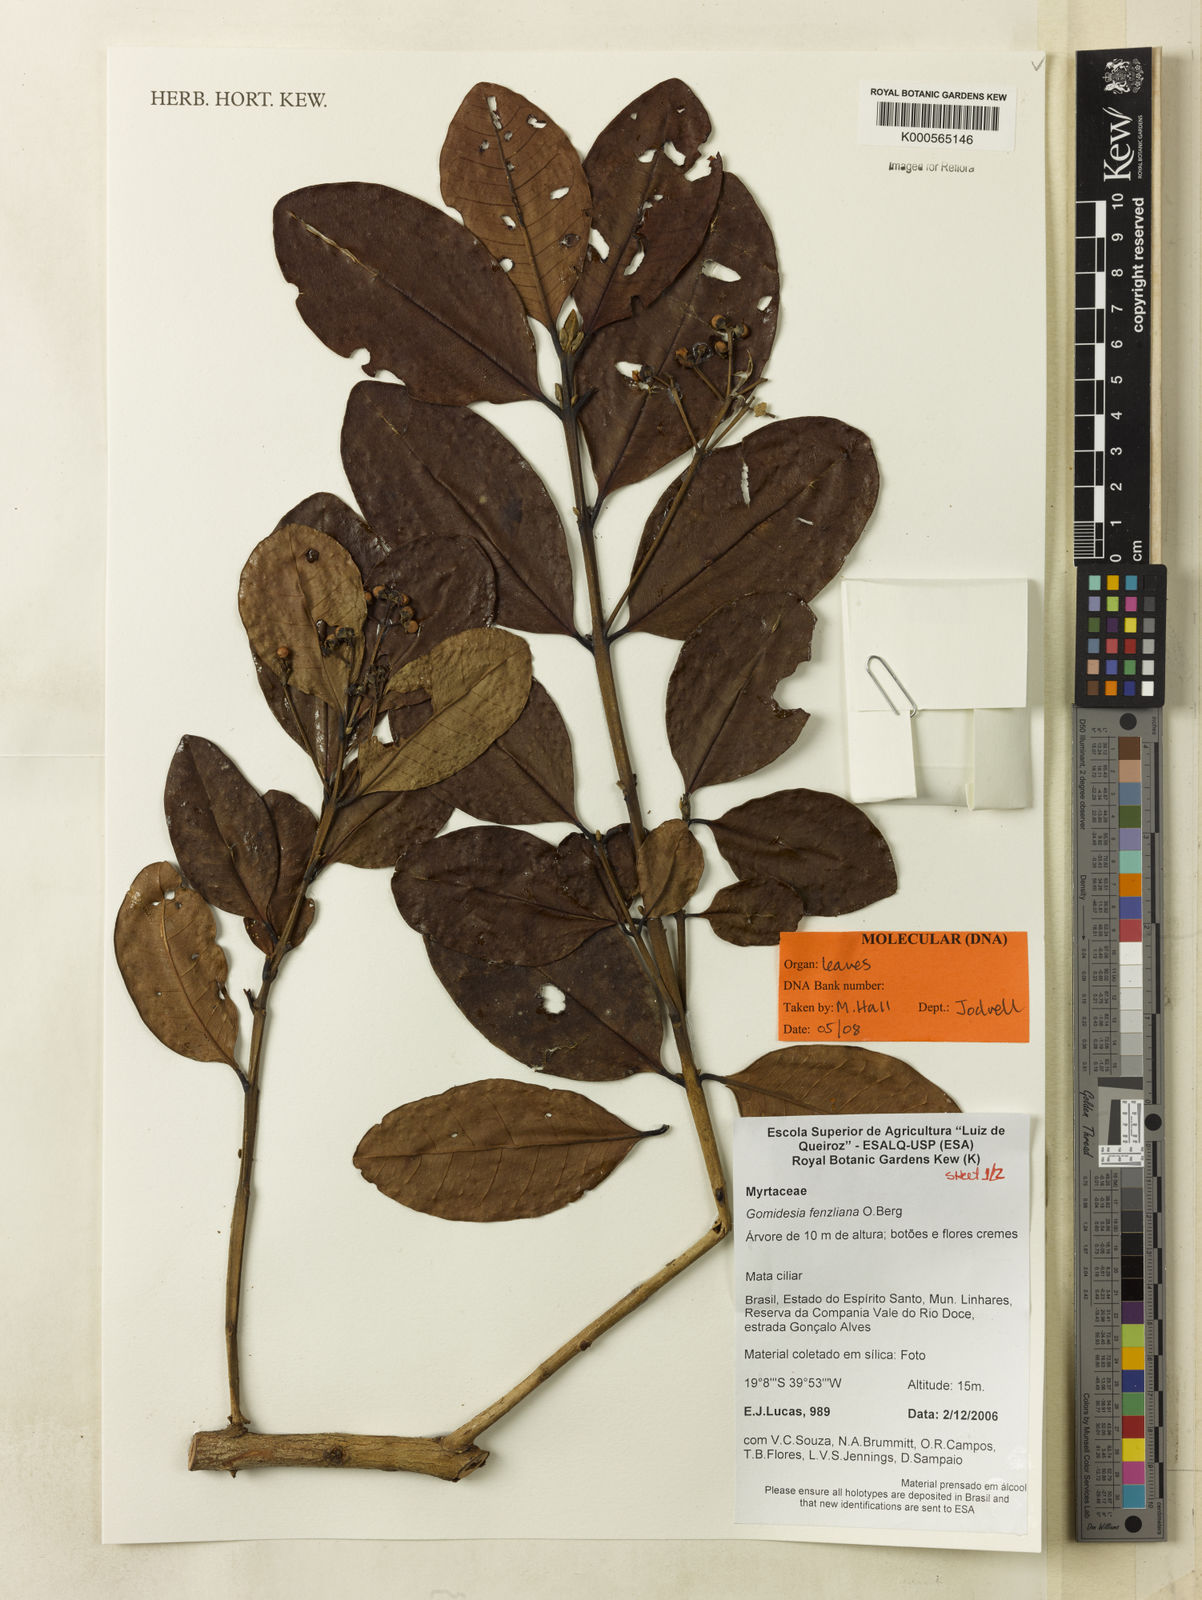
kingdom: Plantae
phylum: Tracheophyta
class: Magnoliopsida
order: Myrtales
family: Myrtaceae
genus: Myrcia
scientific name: Myrcia ilheosensis
